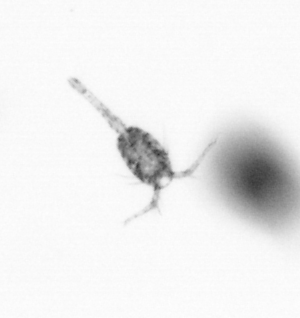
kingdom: Animalia
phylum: Arthropoda
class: Copepoda
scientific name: Copepoda
